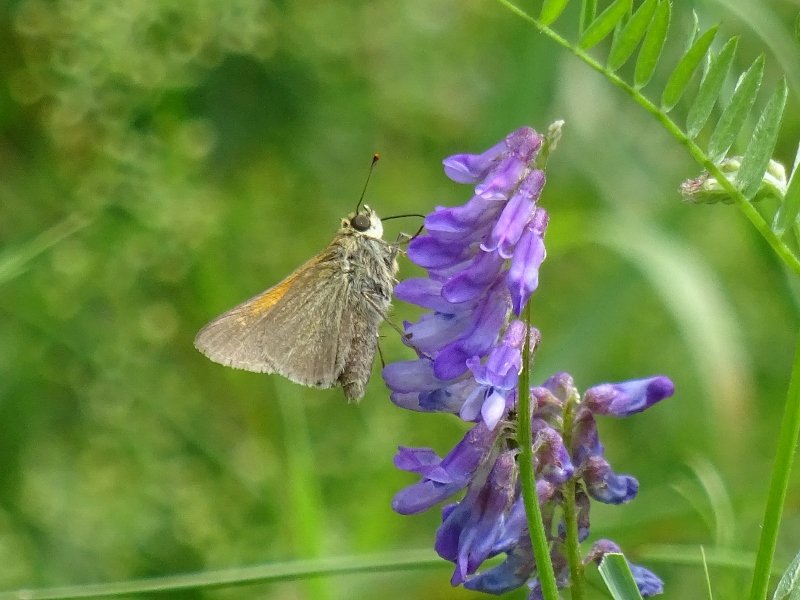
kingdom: Animalia
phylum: Arthropoda
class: Insecta
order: Lepidoptera
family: Hesperiidae
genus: Polites
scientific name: Polites themistocles
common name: Tawny-edged Skipper
